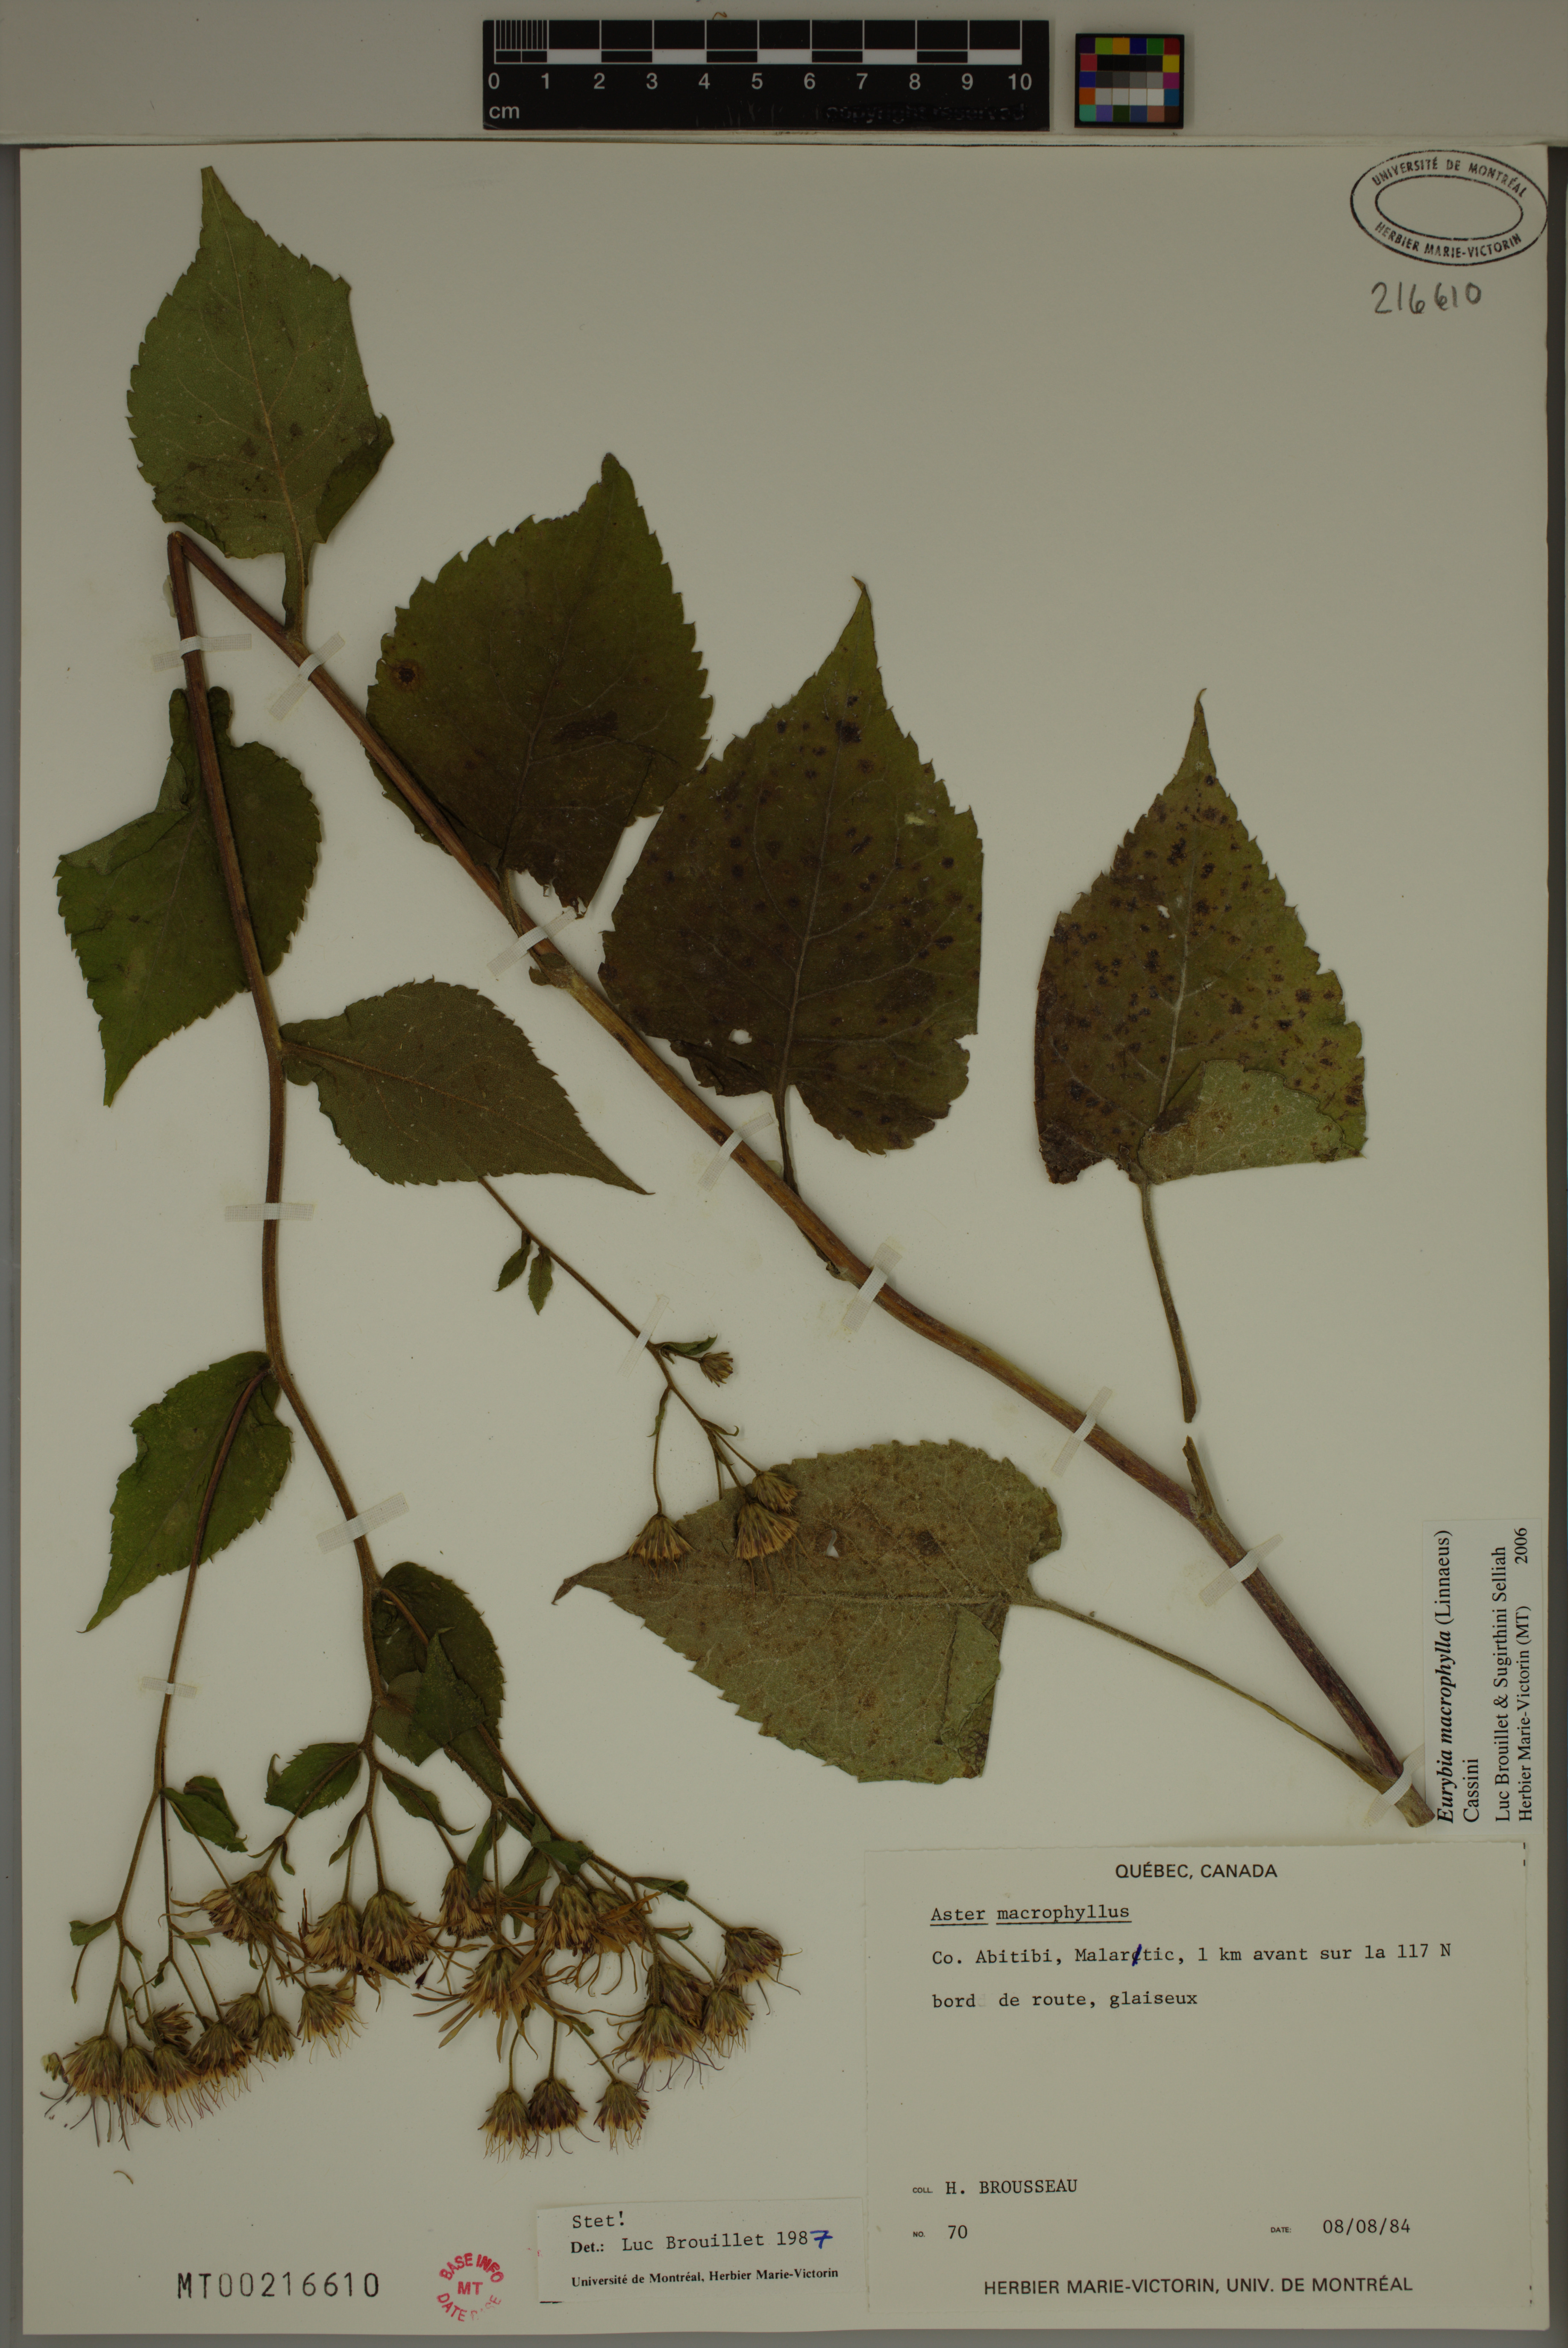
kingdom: Plantae
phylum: Tracheophyta
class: Magnoliopsida
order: Asterales
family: Asteraceae
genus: Eurybia
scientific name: Eurybia macrophylla
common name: Big-leaved aster
